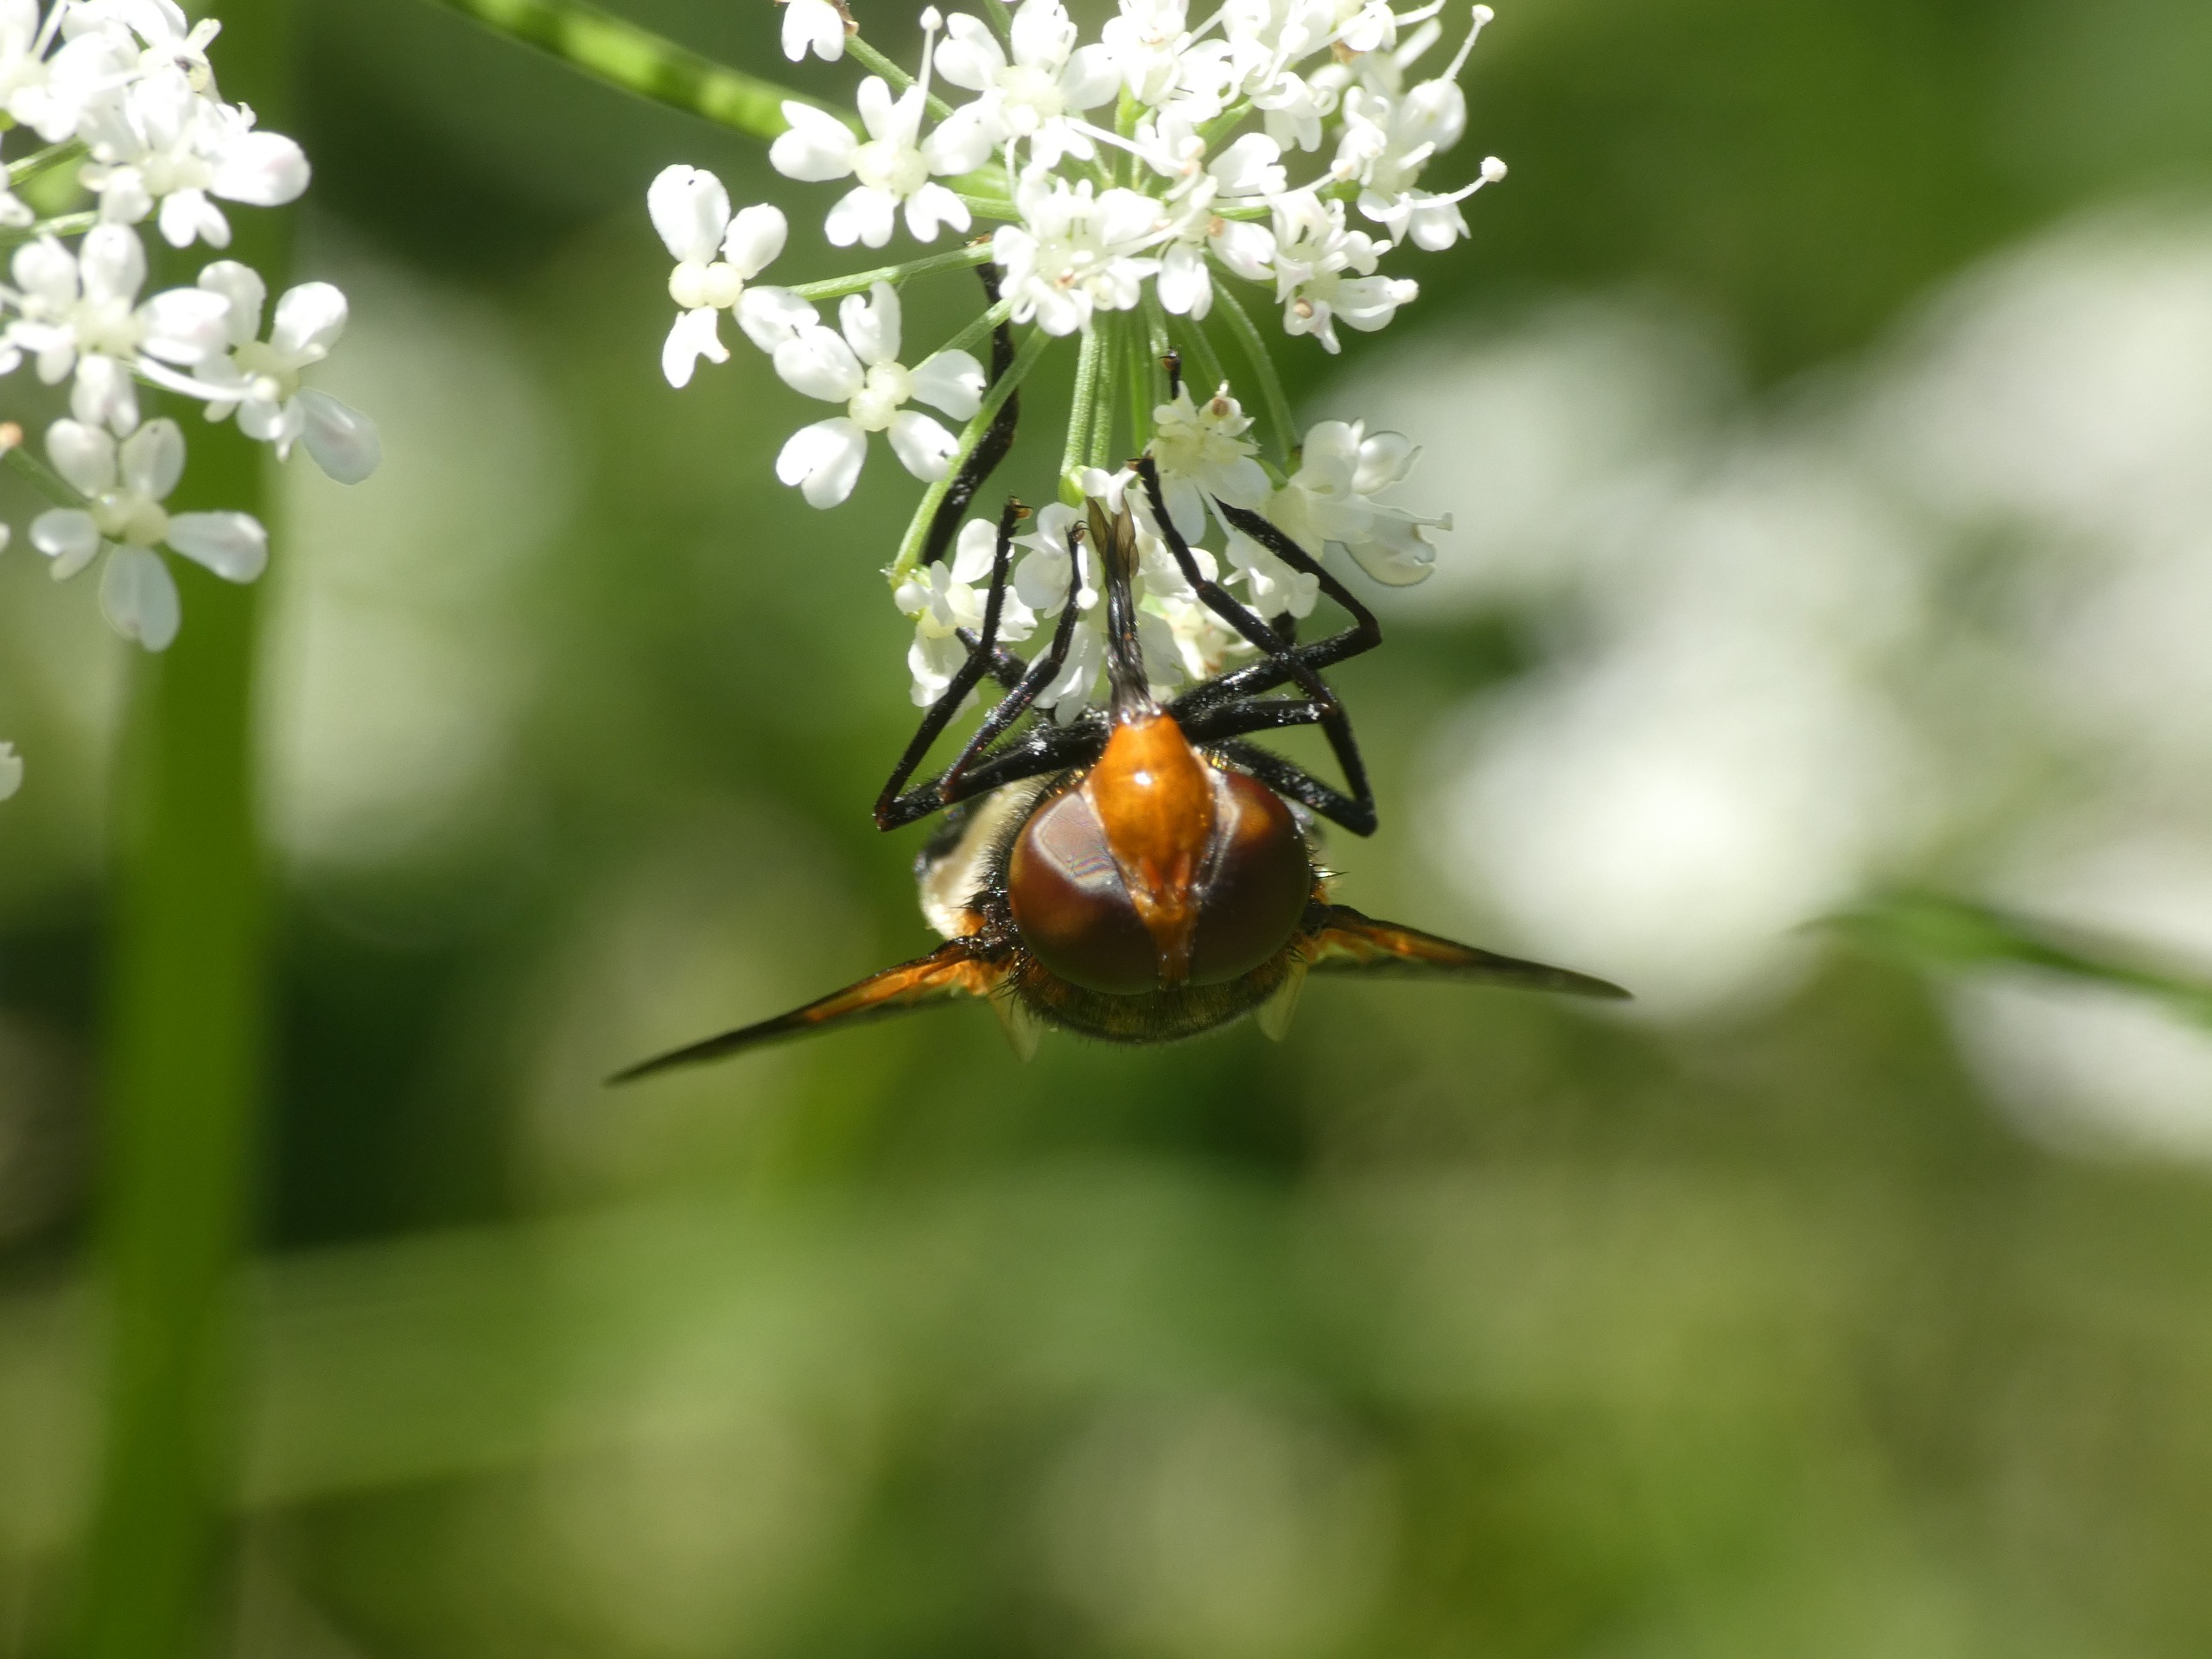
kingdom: Animalia
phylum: Arthropoda
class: Insecta
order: Diptera
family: Syrphidae
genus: Volucella
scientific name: Volucella pellucens
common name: Hvidbåndet humlesvirreflue
